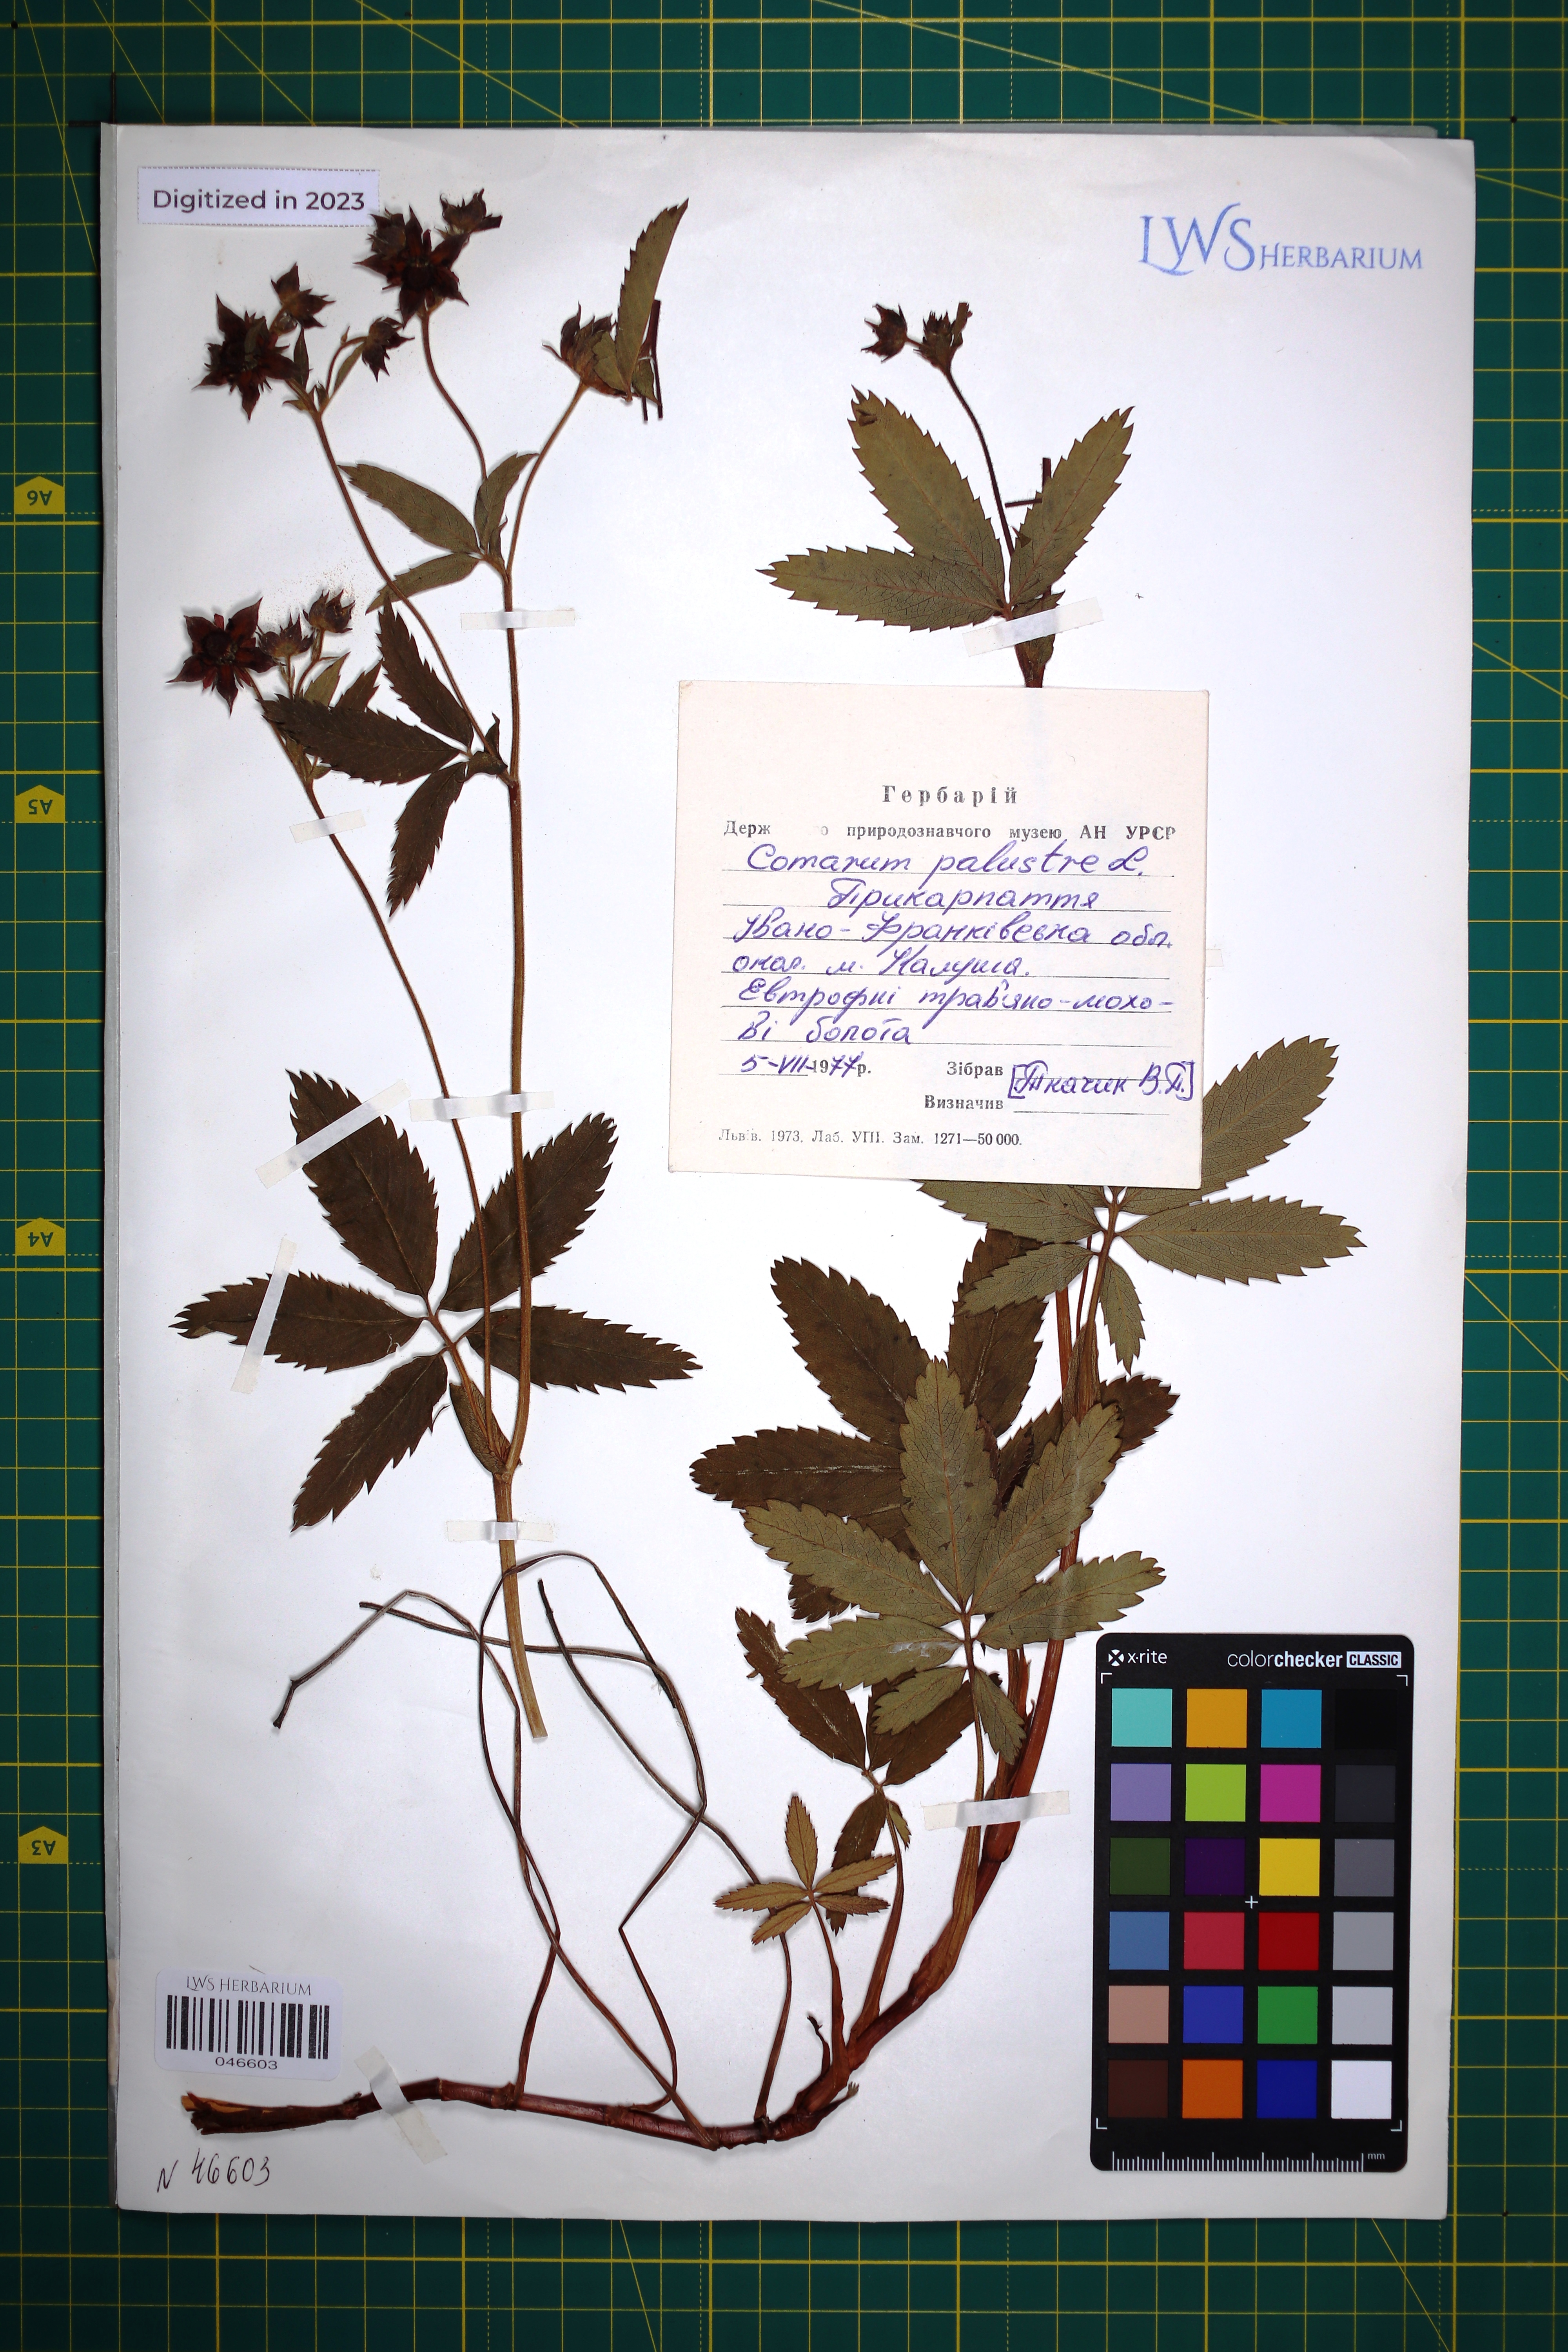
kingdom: Plantae
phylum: Tracheophyta
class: Magnoliopsida
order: Rosales
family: Rosaceae
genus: Comarum
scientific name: Comarum palustre
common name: Marsh cinquefoil
